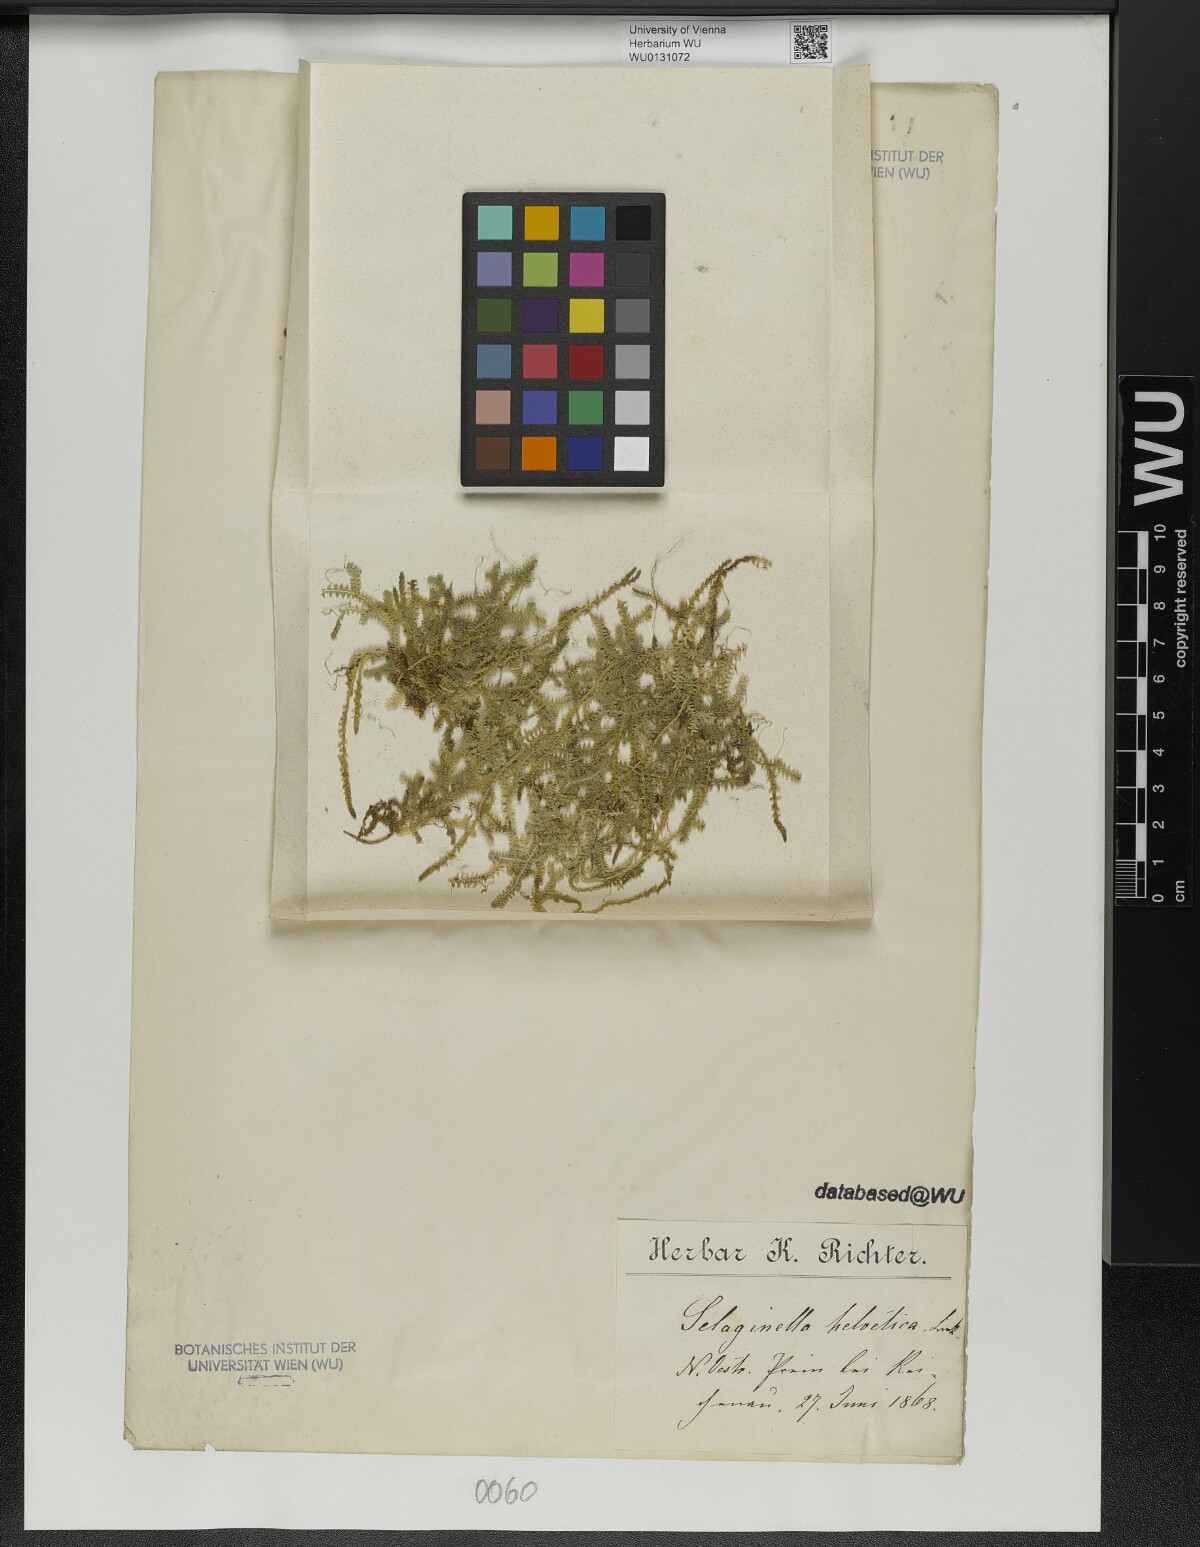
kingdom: Plantae
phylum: Tracheophyta
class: Lycopodiopsida
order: Selaginellales
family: Selaginellaceae
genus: Selaginella
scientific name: Selaginella helvetica
